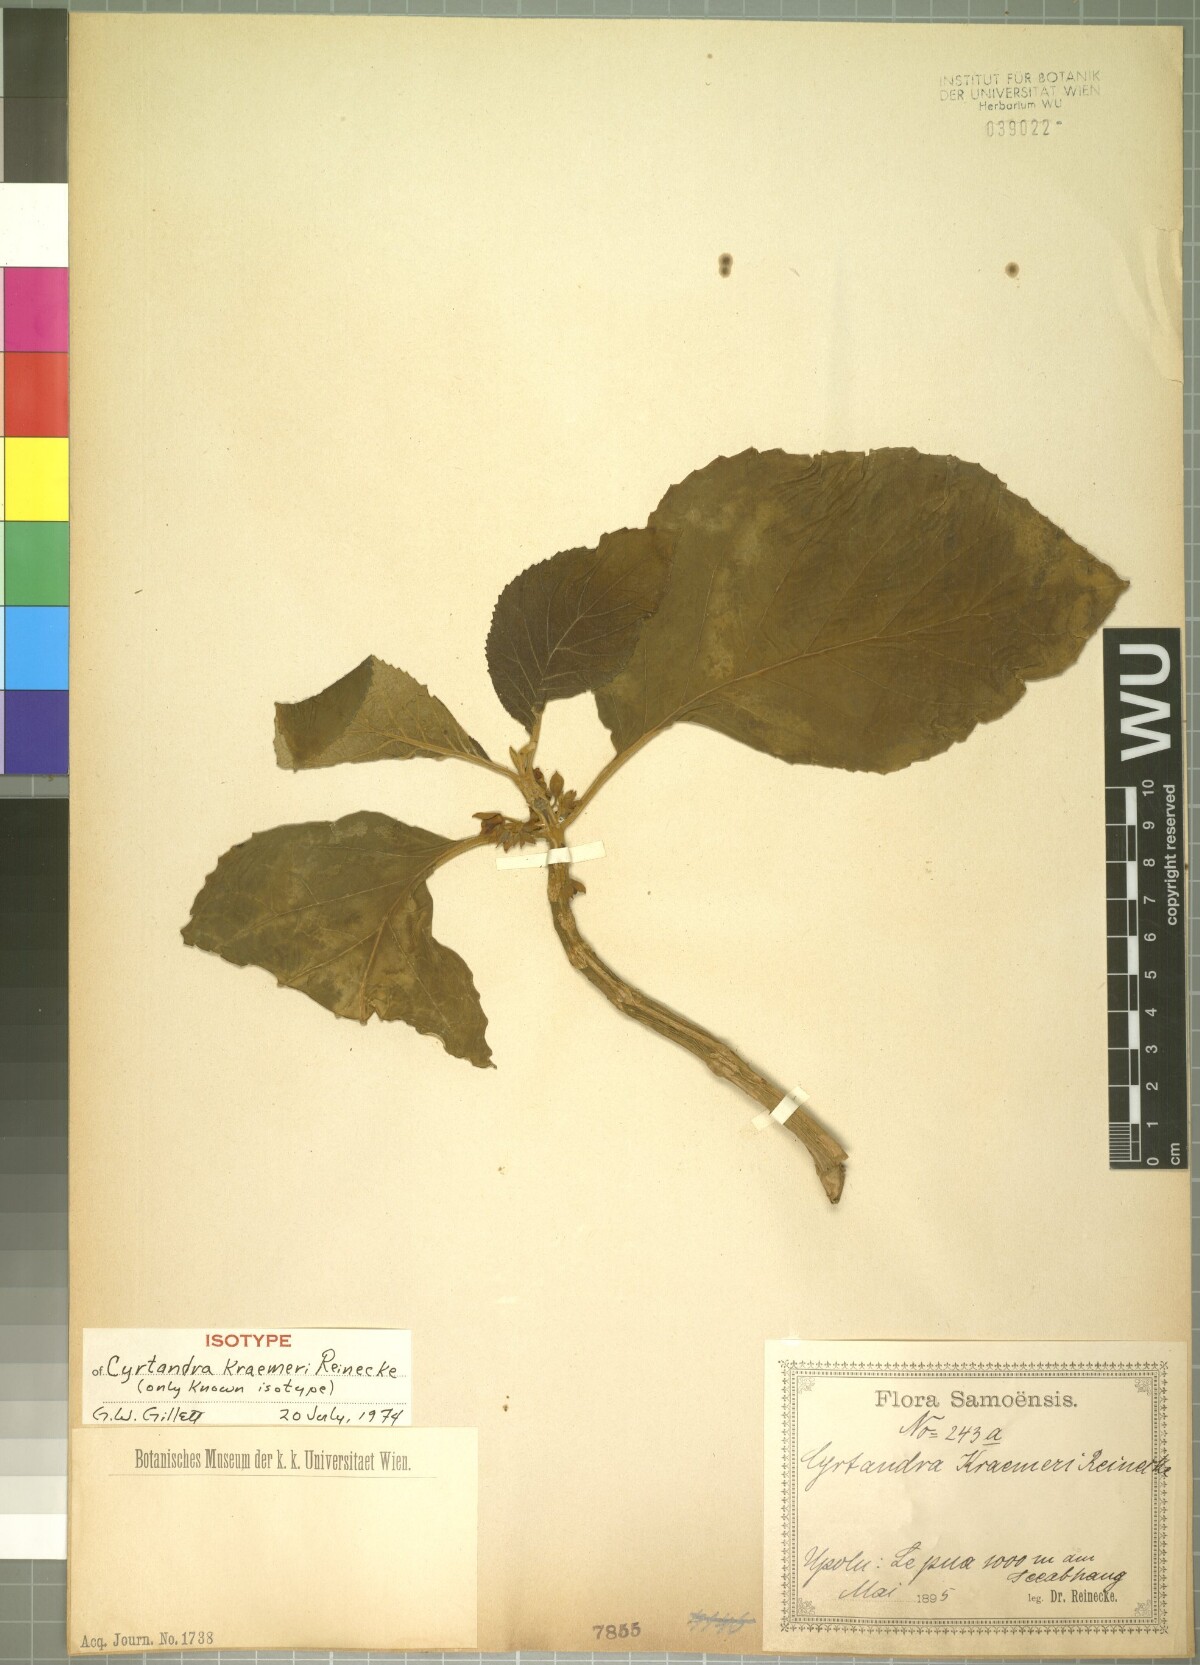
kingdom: Plantae
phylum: Tracheophyta
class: Magnoliopsida
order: Lamiales
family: Gesneriaceae
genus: Cyrtandra
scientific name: Cyrtandra samoensis
